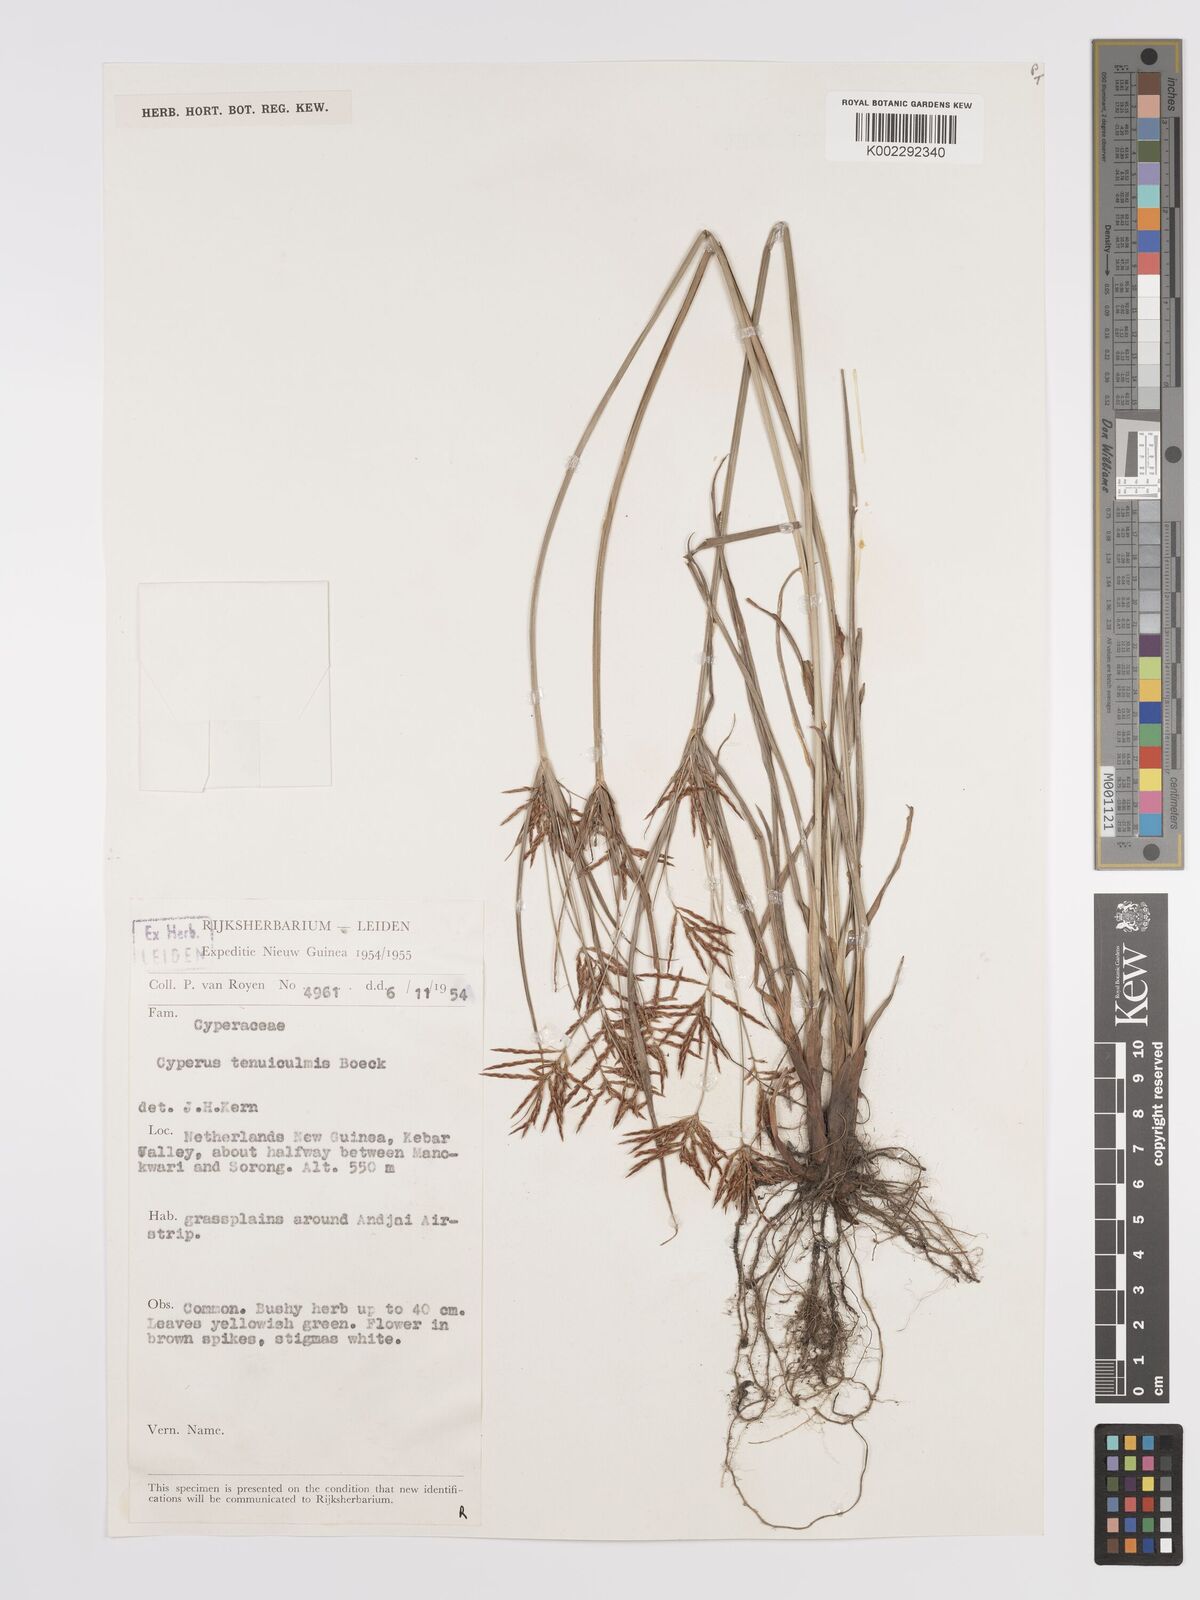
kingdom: Plantae
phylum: Tracheophyta
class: Liliopsida
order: Poales
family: Cyperaceae
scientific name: Cyperaceae
